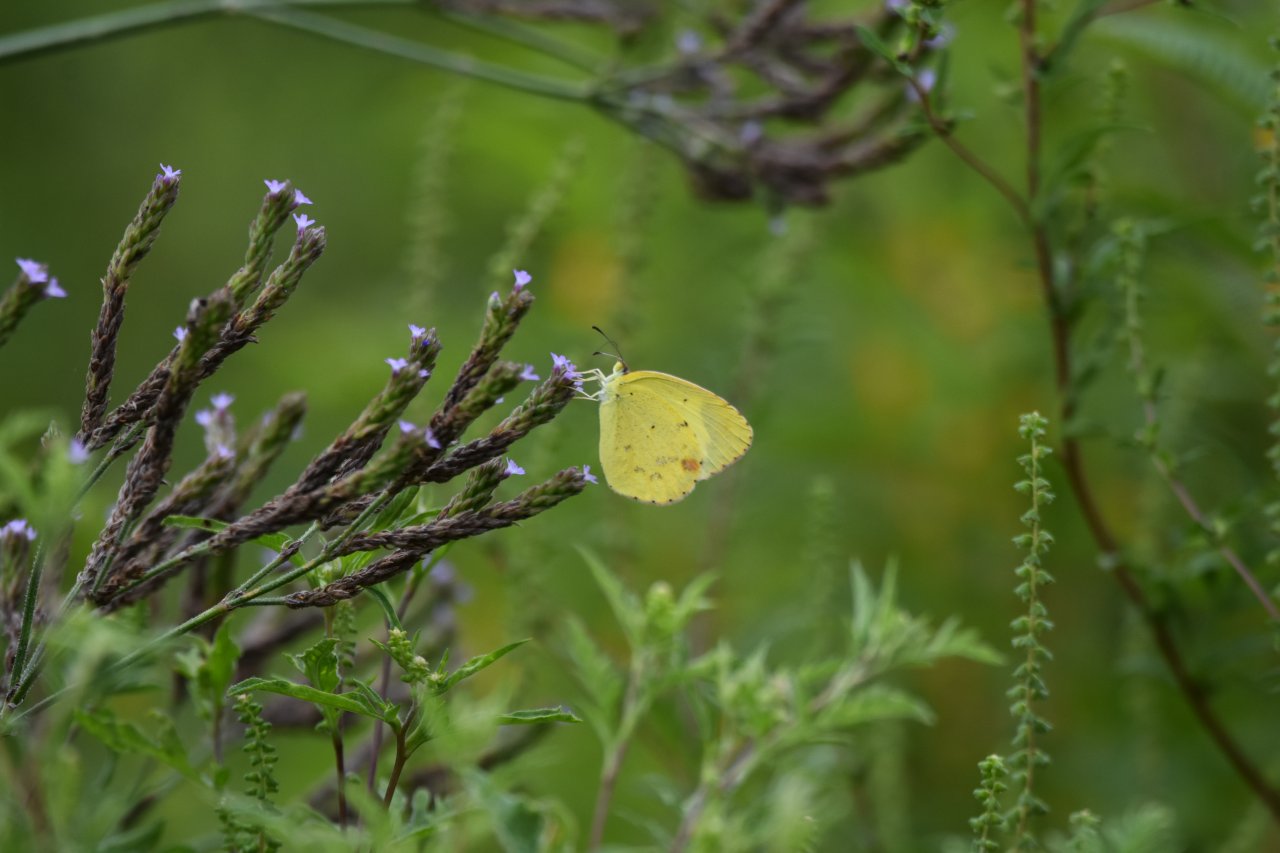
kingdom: Animalia
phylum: Arthropoda
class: Insecta
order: Lepidoptera
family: Pieridae
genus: Pyrisitia
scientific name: Pyrisitia lisa
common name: Little Yellow
